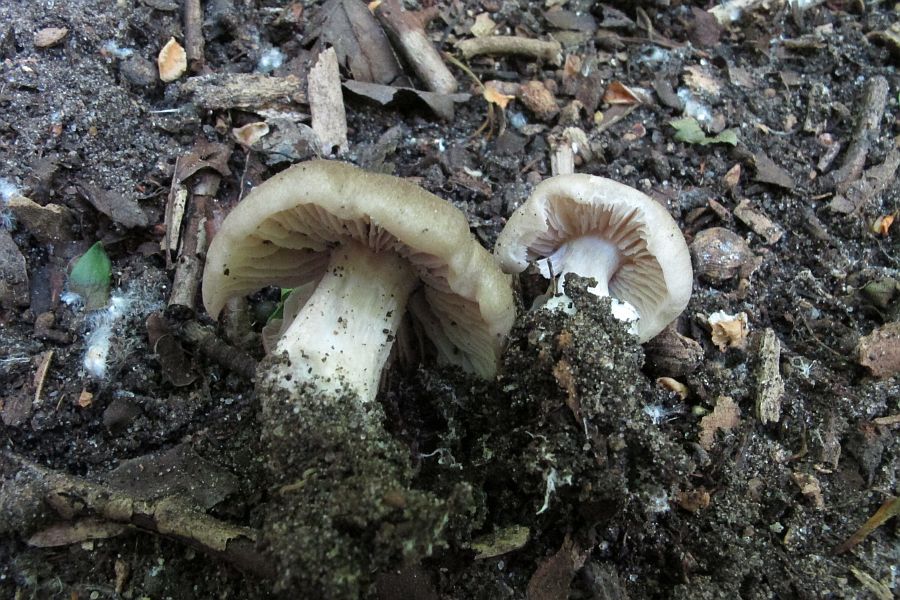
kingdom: Fungi
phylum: Basidiomycota
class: Agaricomycetes
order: Agaricales
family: Entolomataceae
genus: Entoloma
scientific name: Entoloma clypeatum
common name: flammet rødblad
